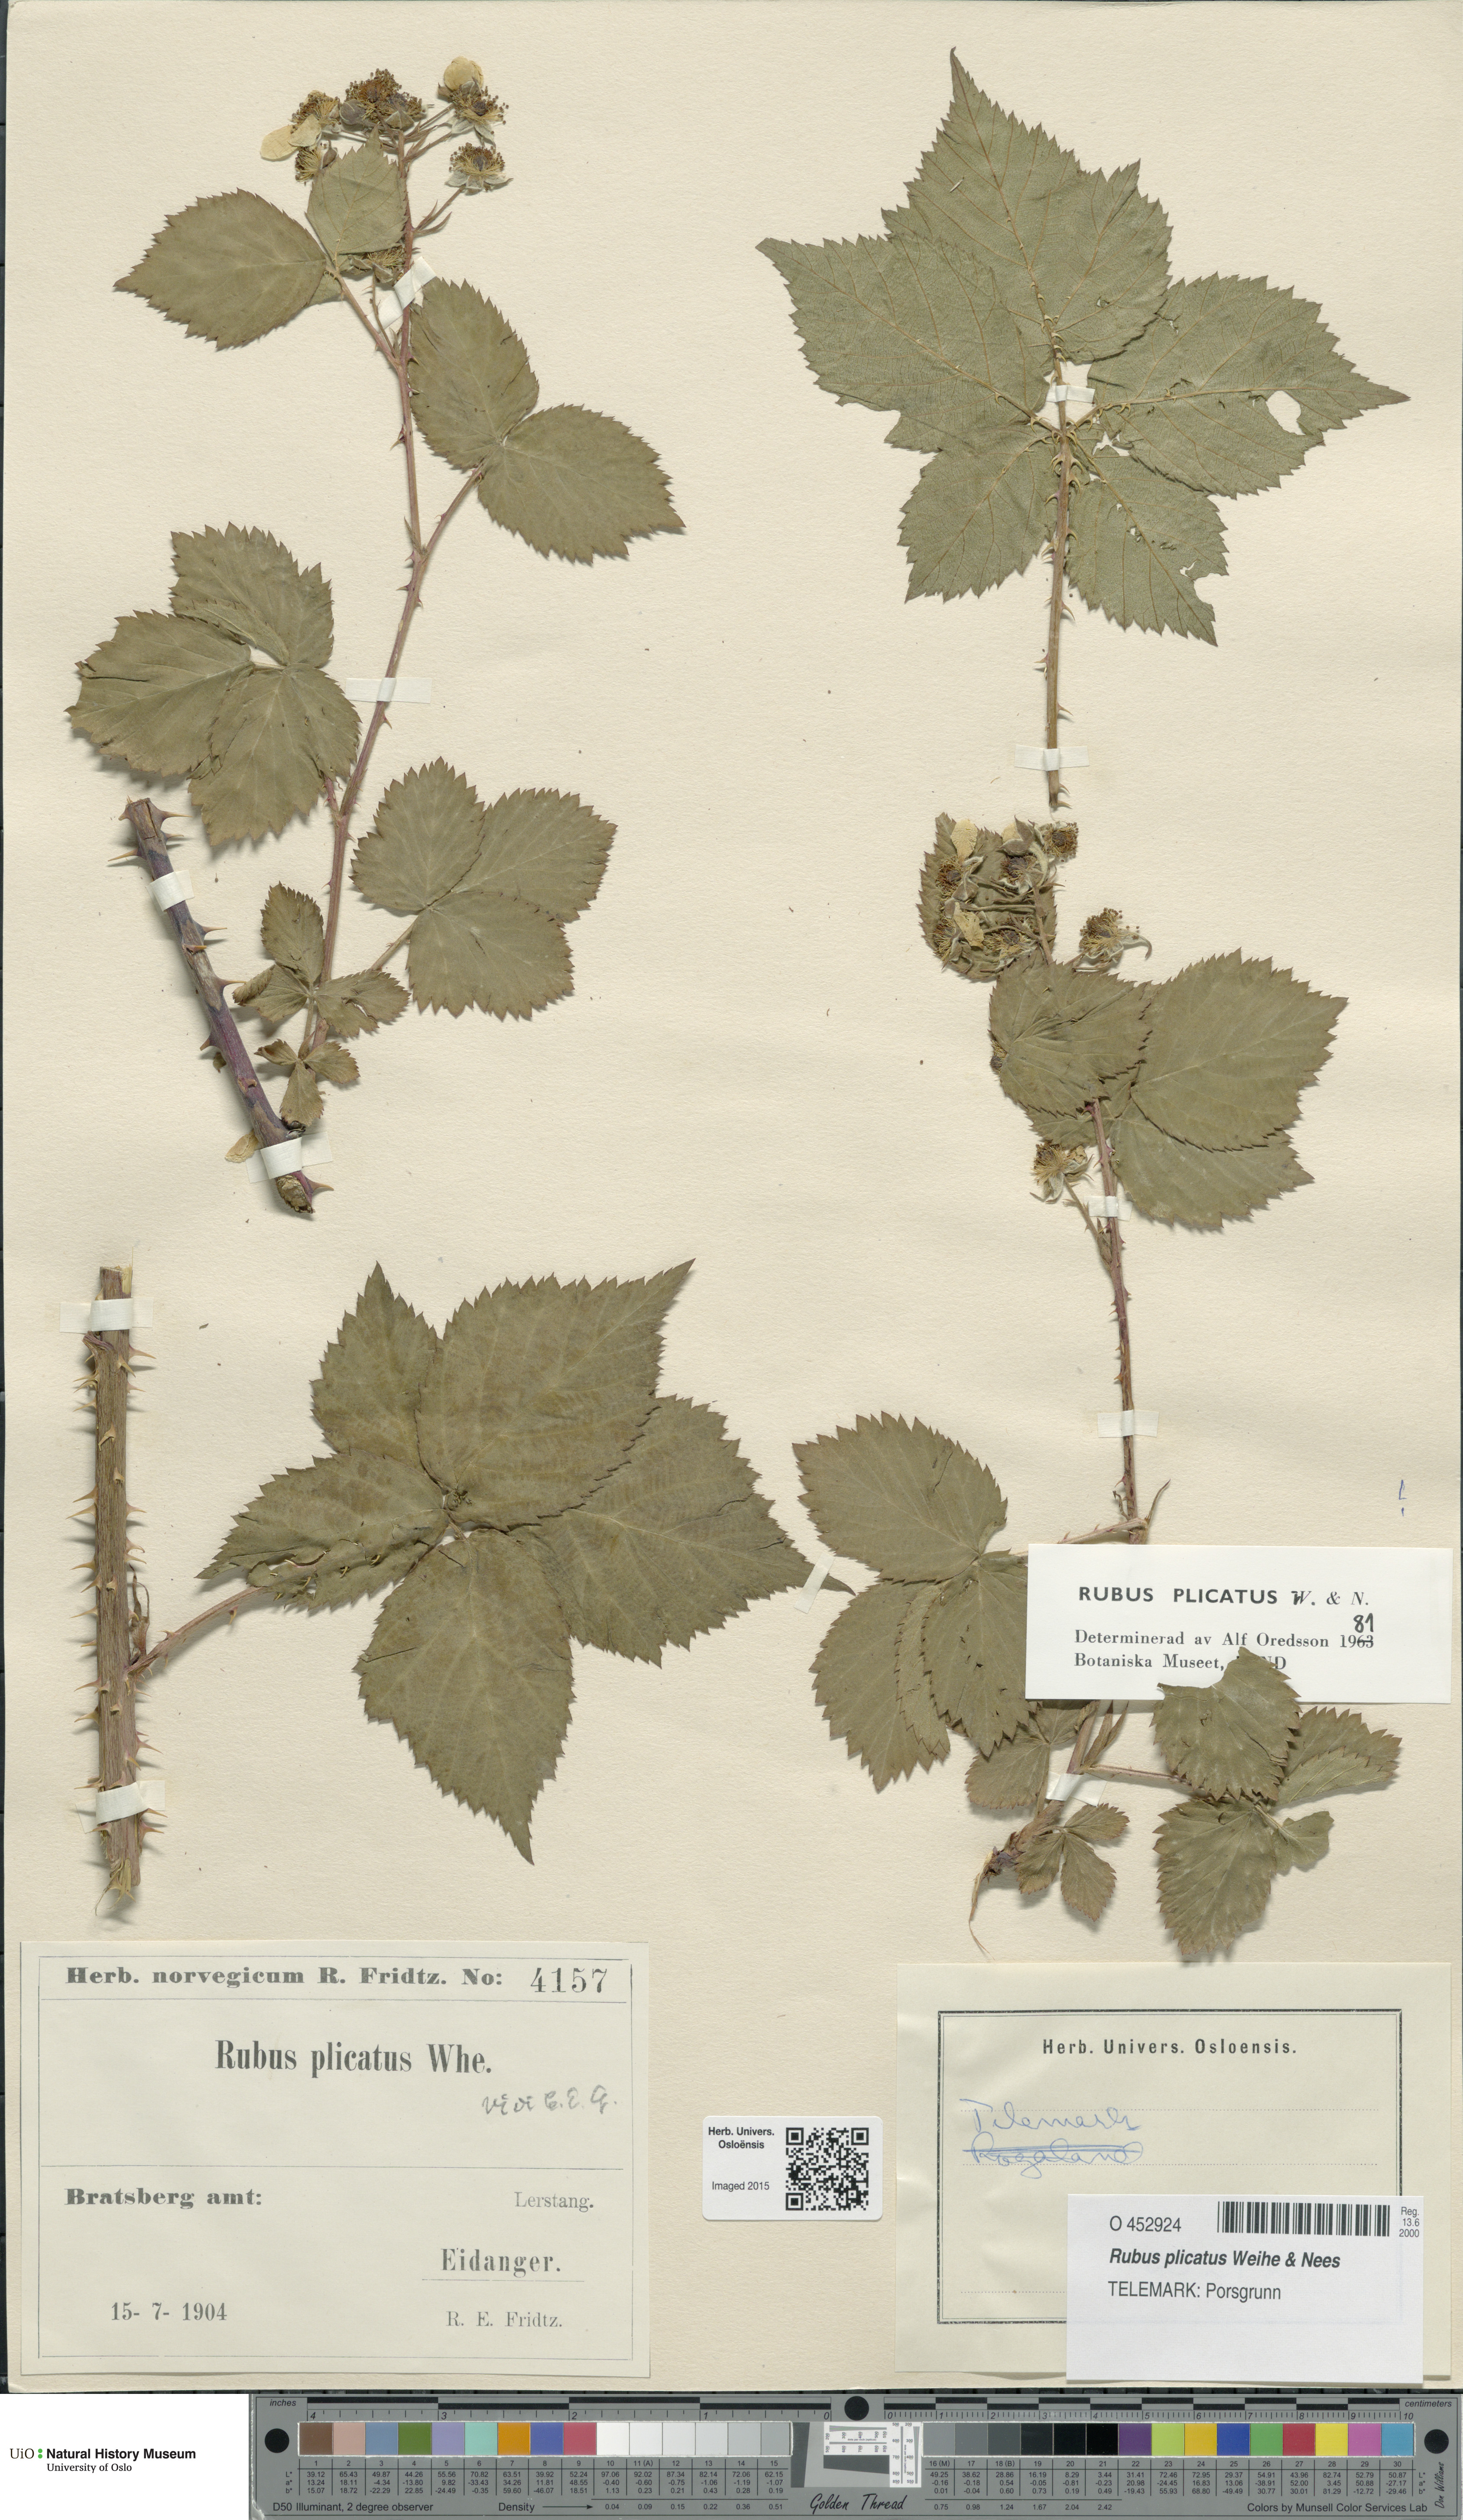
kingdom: Plantae
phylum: Tracheophyta
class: Magnoliopsida
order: Rosales
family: Rosaceae
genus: Rubus
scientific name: Rubus fruticosus
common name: Blackberry, bramble
